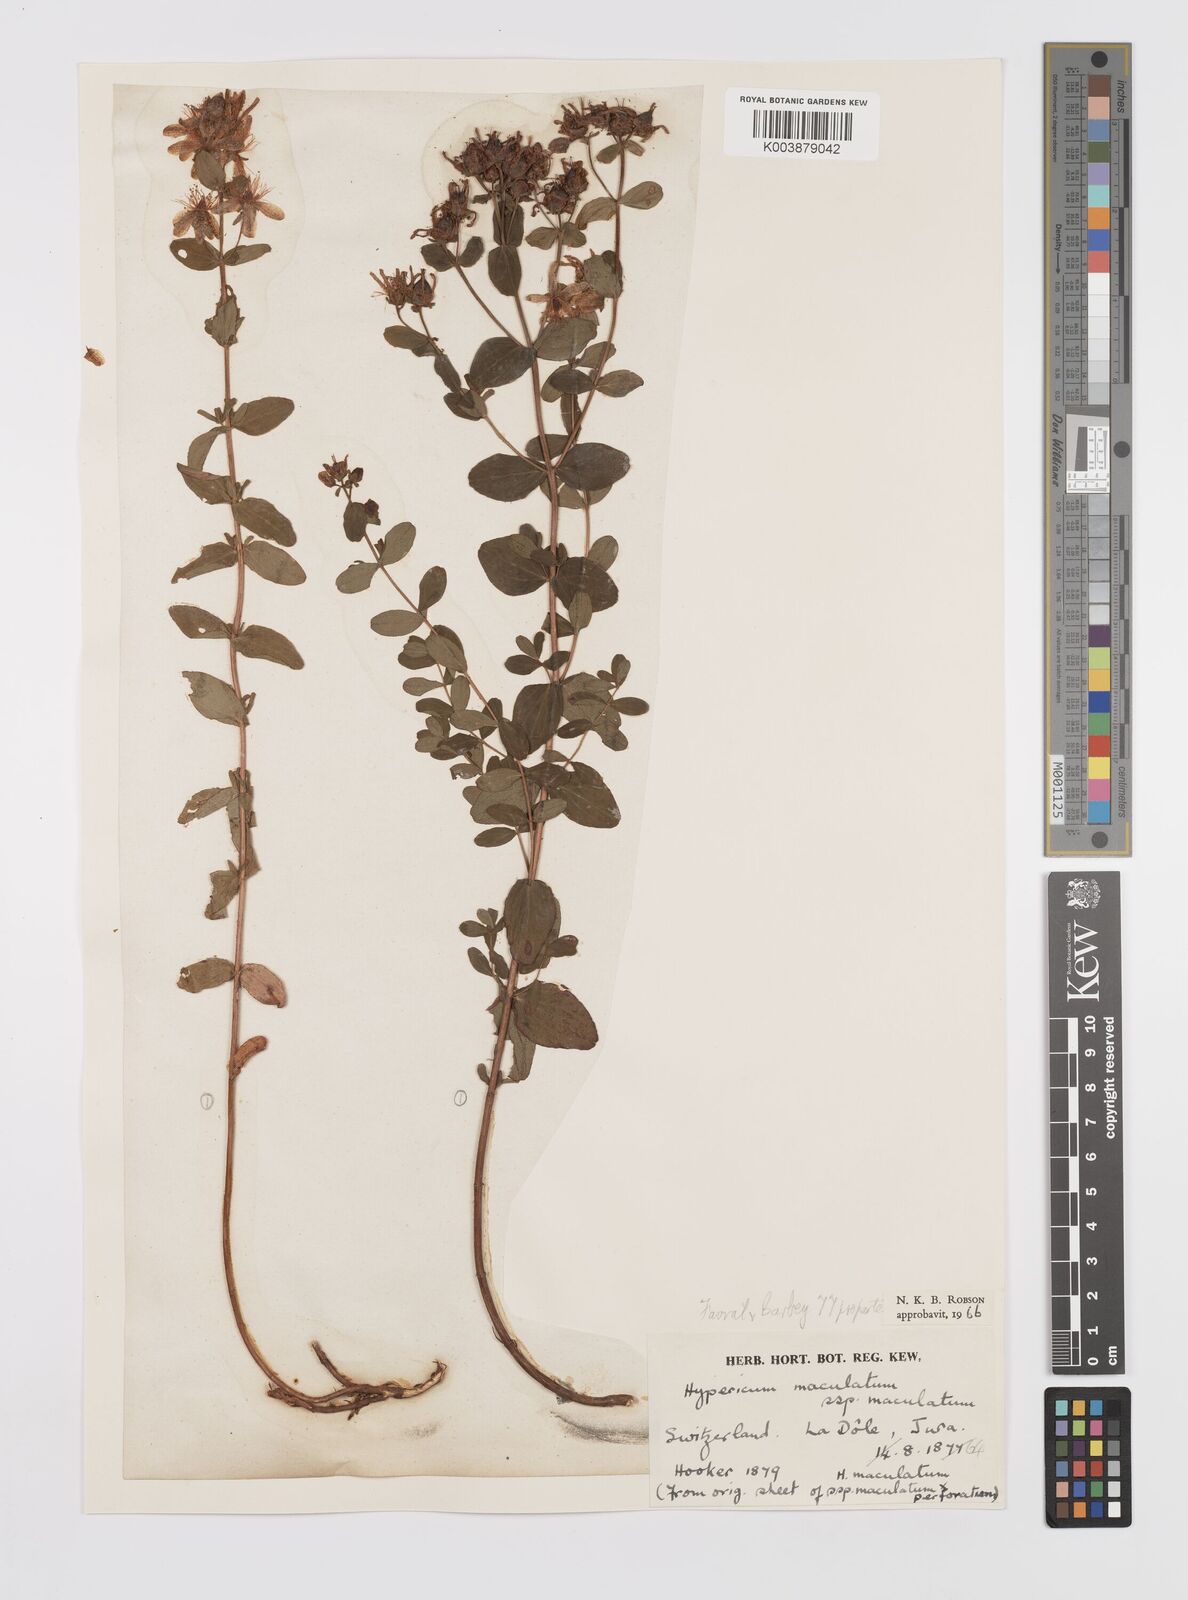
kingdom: Plantae
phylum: Tracheophyta
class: Magnoliopsida
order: Malpighiales
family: Hypericaceae
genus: Hypericum
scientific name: Hypericum maculatum
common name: Imperforate st. john's-wort
